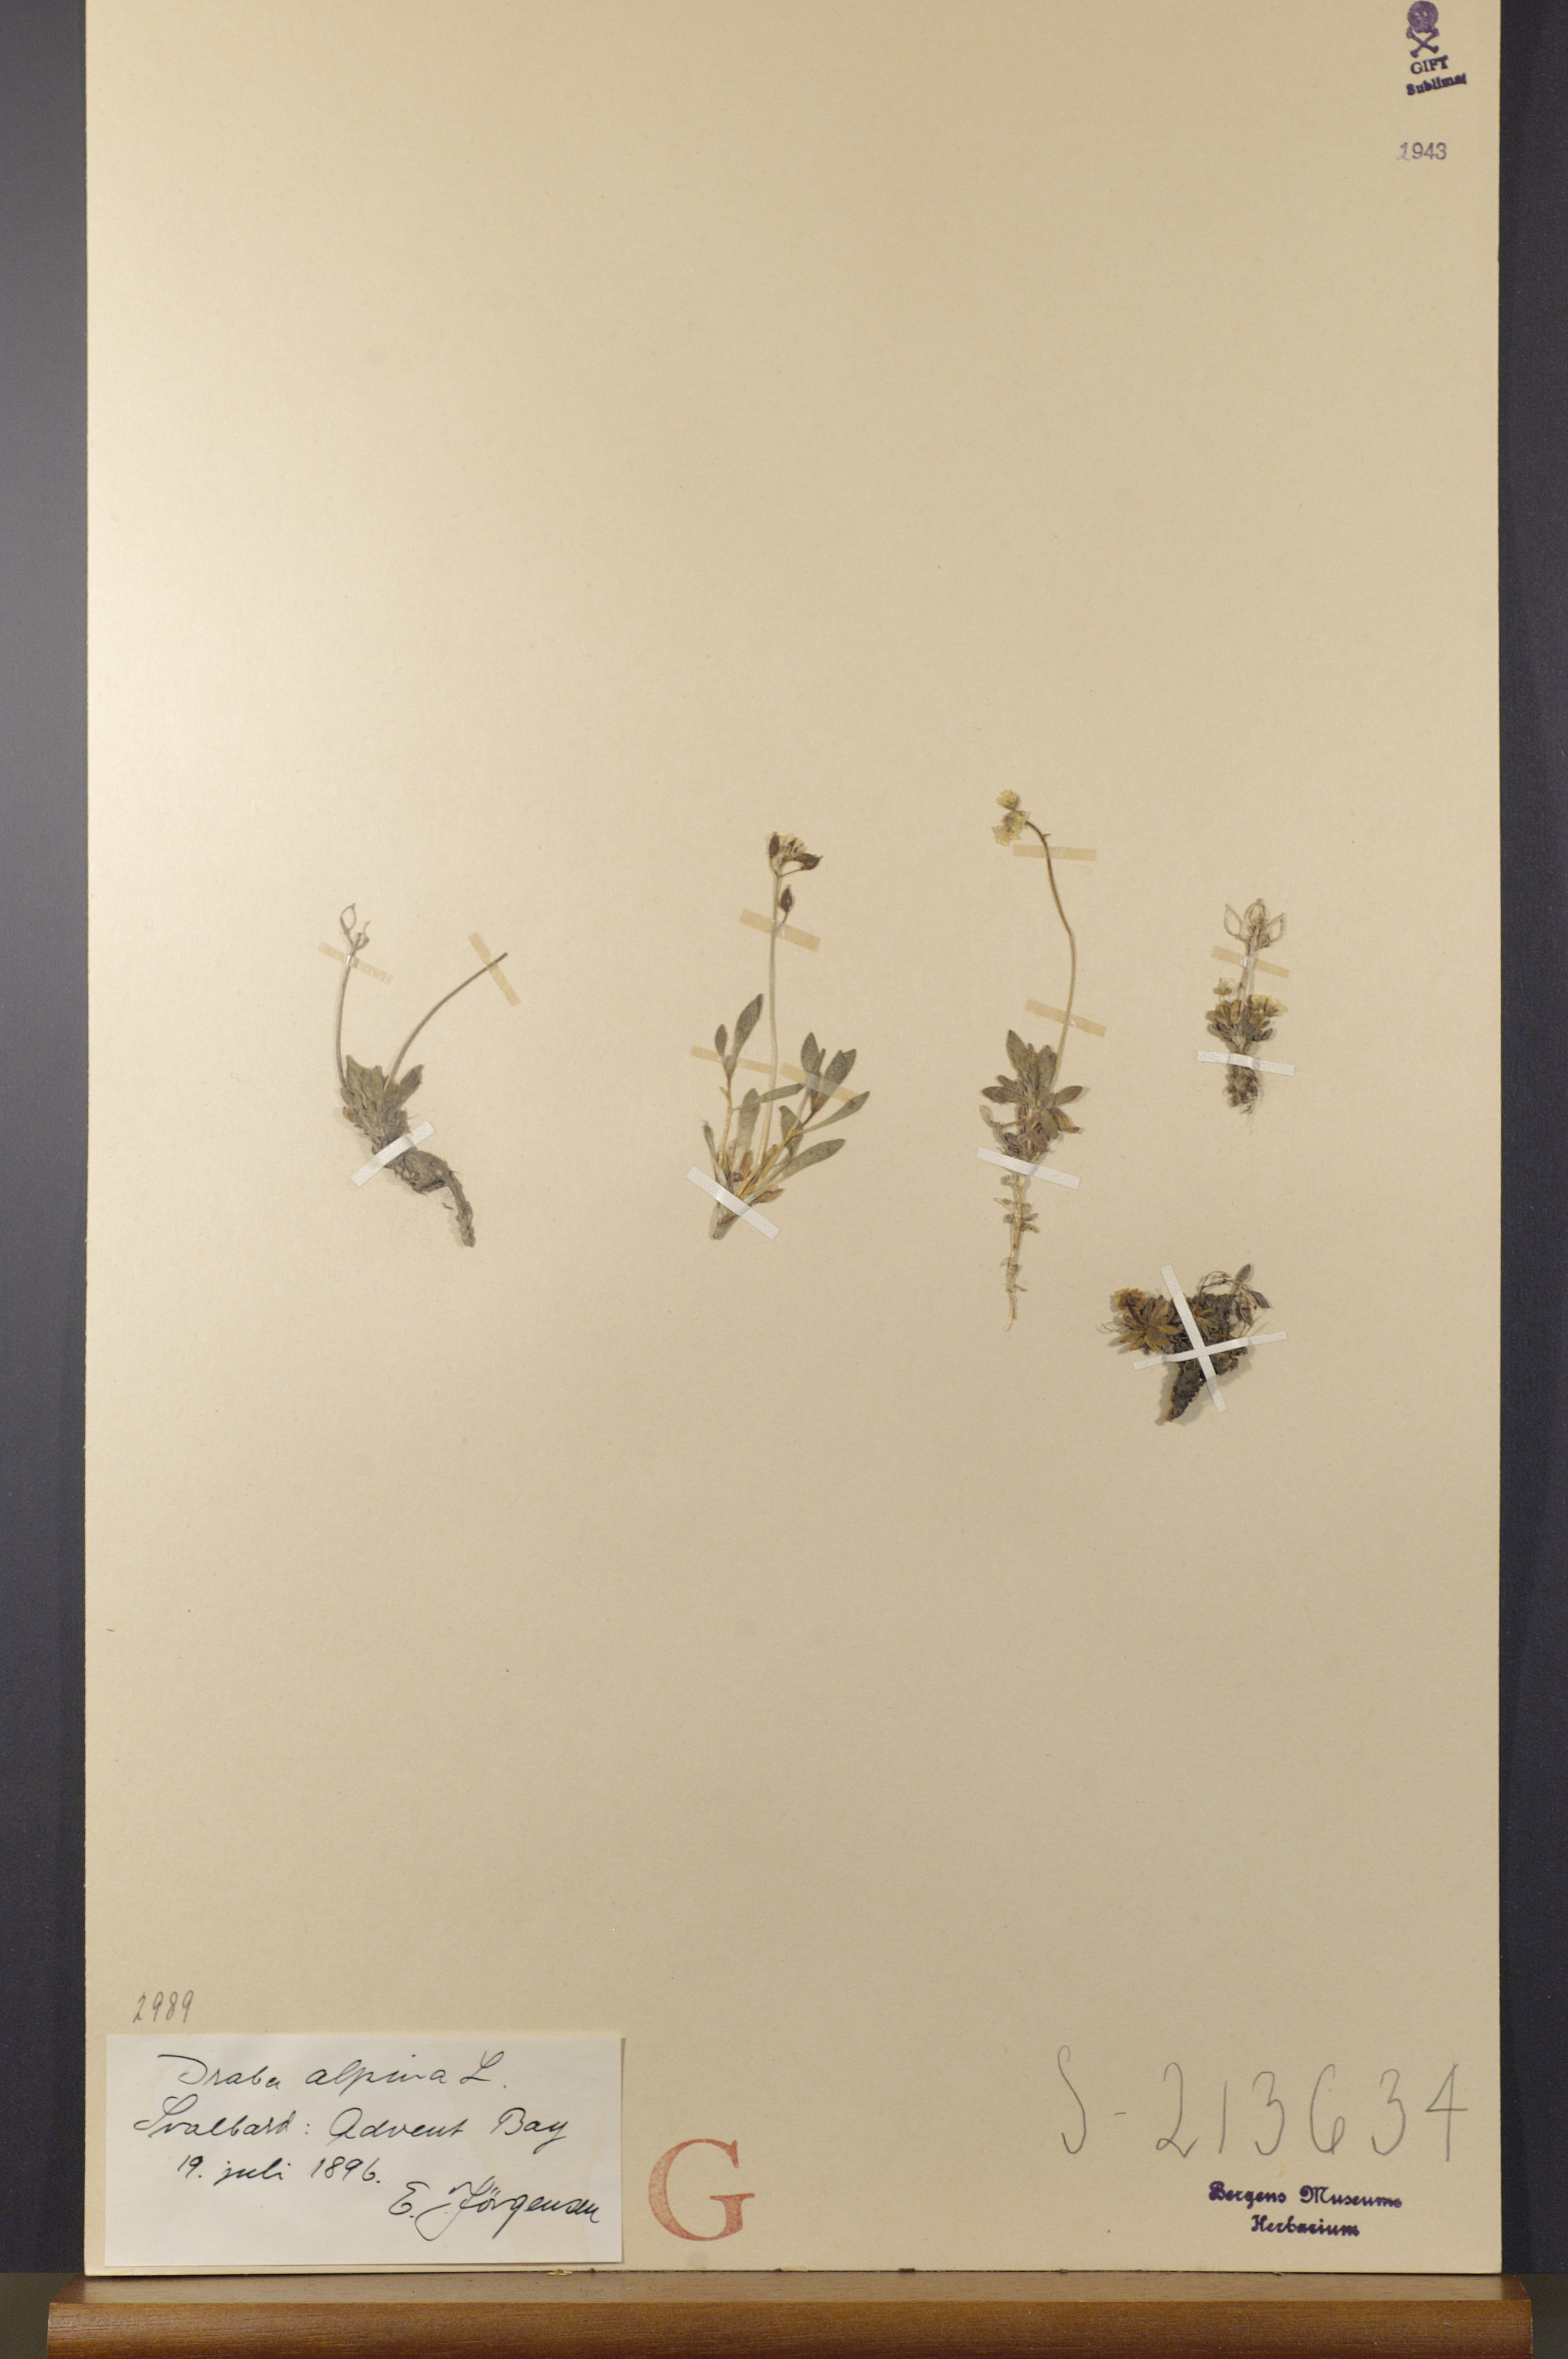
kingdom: Plantae
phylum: Tracheophyta
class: Magnoliopsida
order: Brassicales
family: Brassicaceae
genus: Draba
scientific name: Draba alpina
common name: Alpine draba
